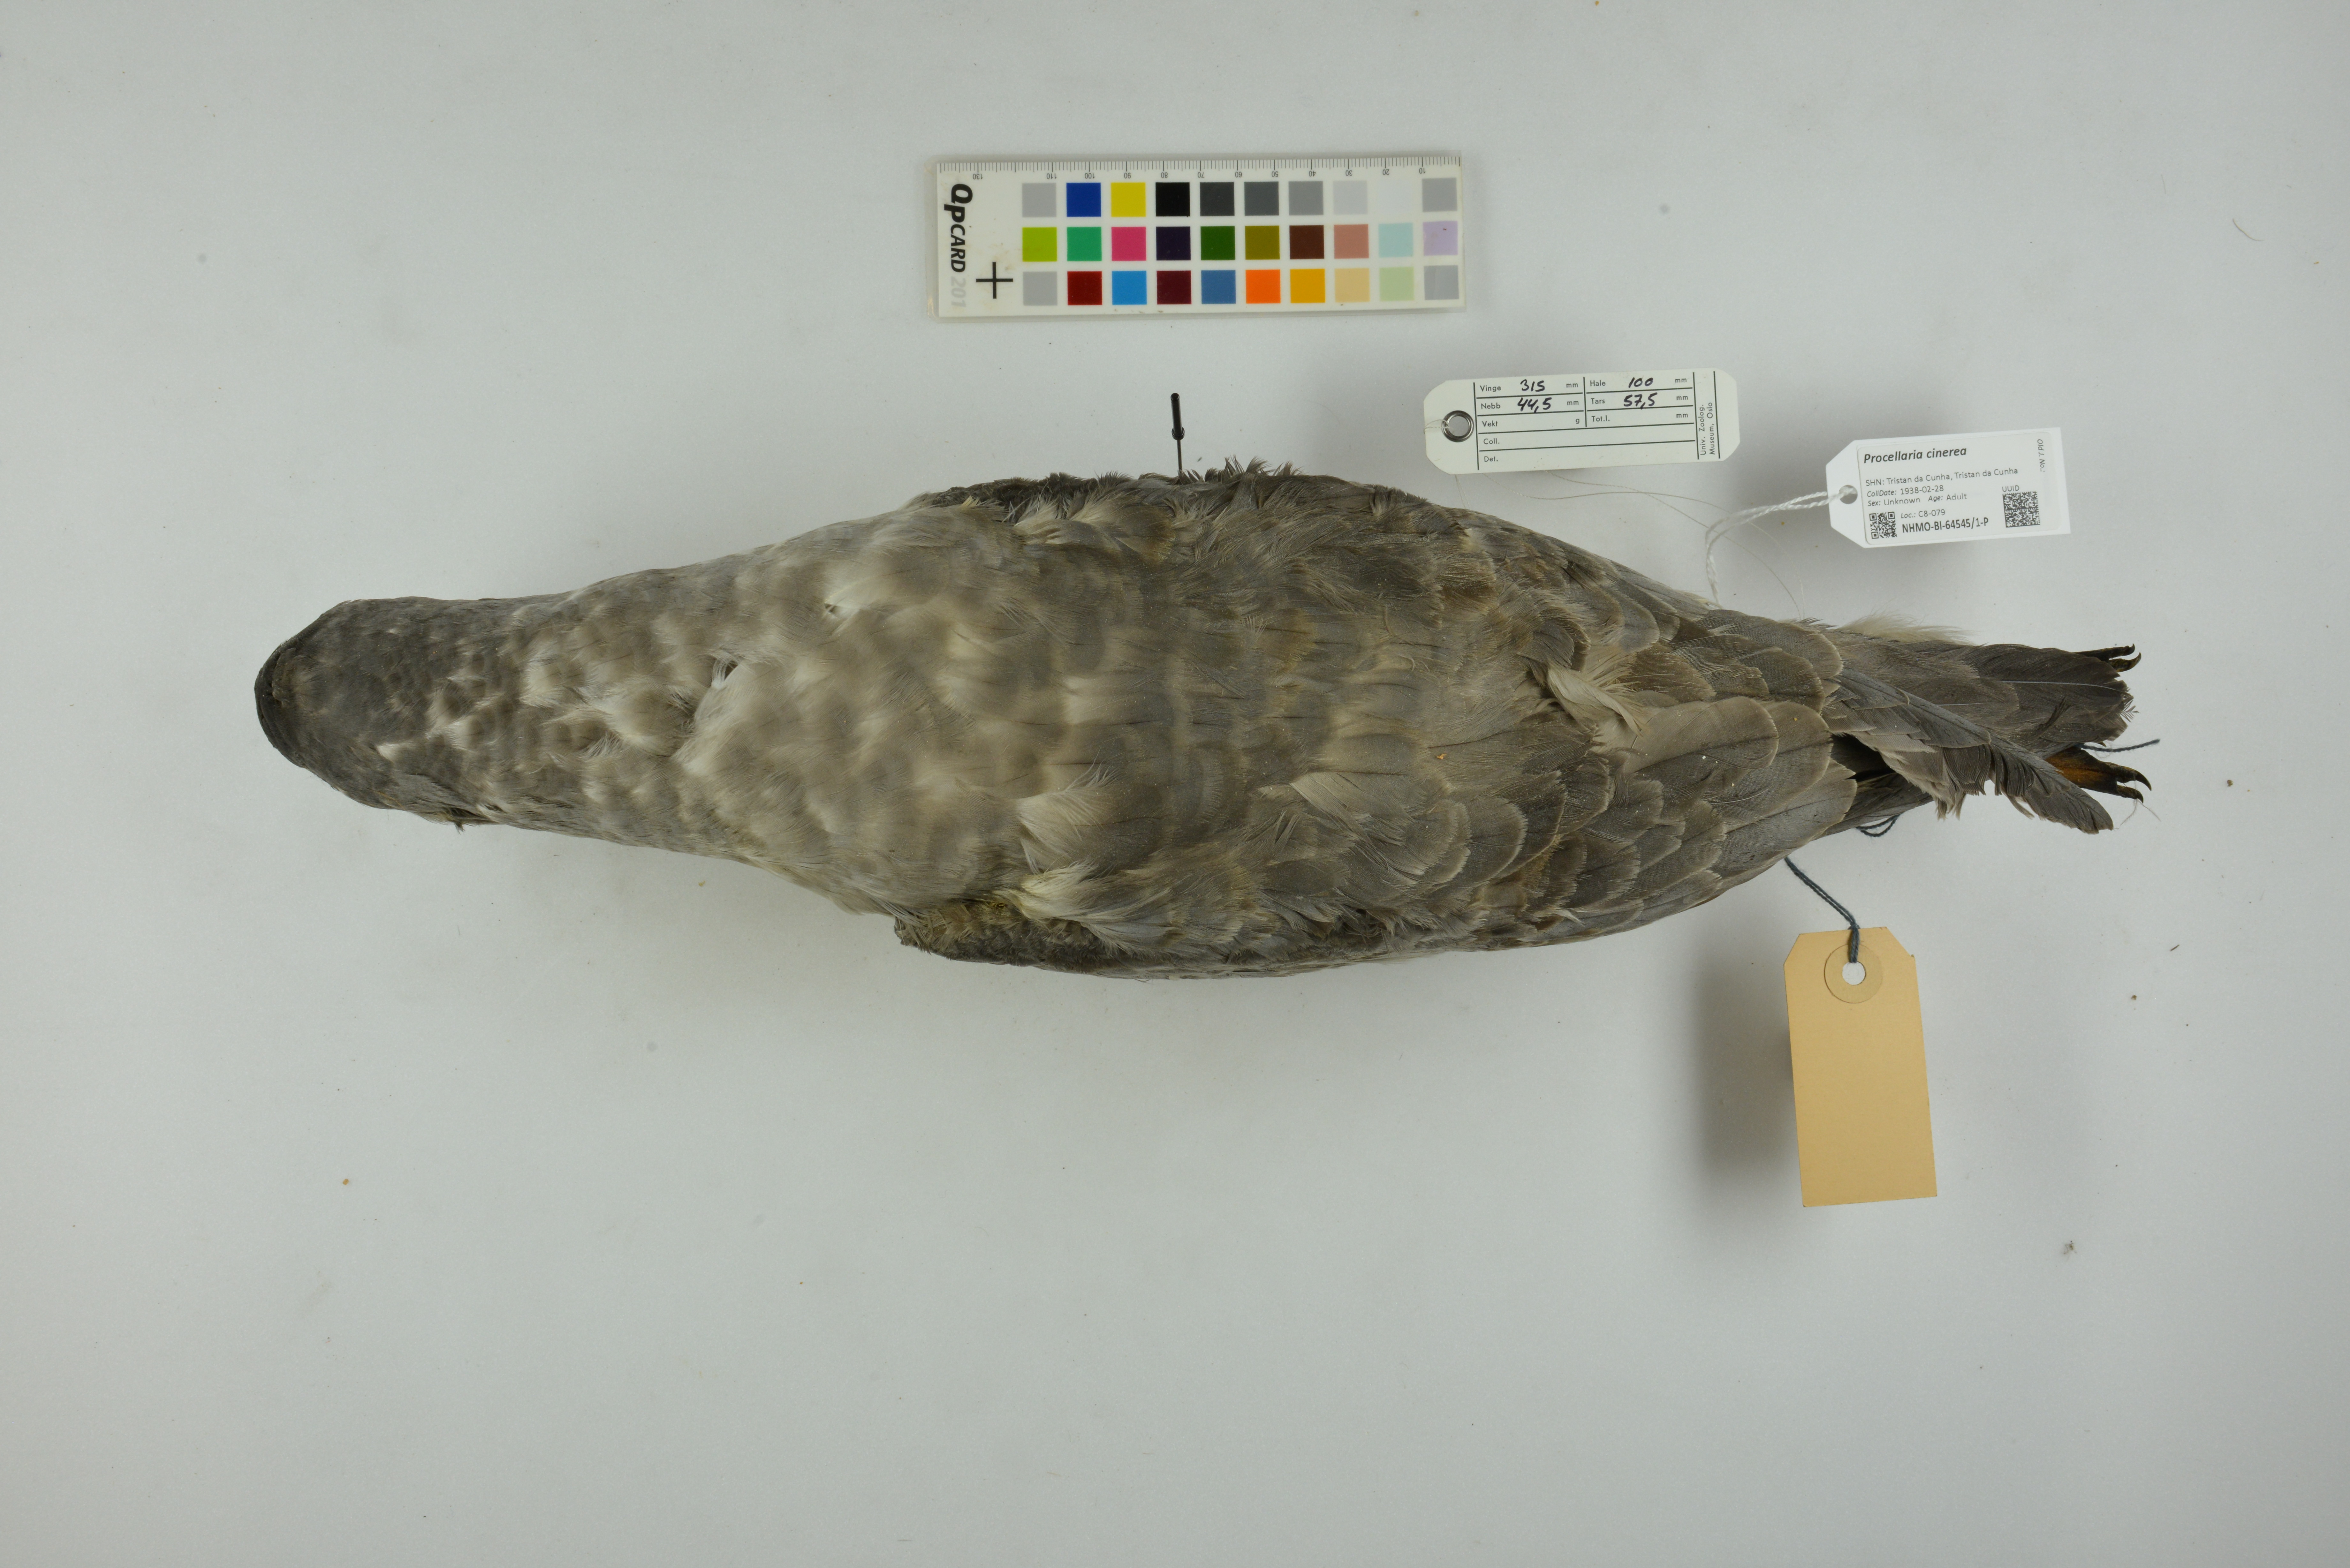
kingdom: Animalia
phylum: Chordata
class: Aves
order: Procellariiformes
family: Procellariidae
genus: Procellaria
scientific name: Procellaria cinerea
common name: Grey petrel
